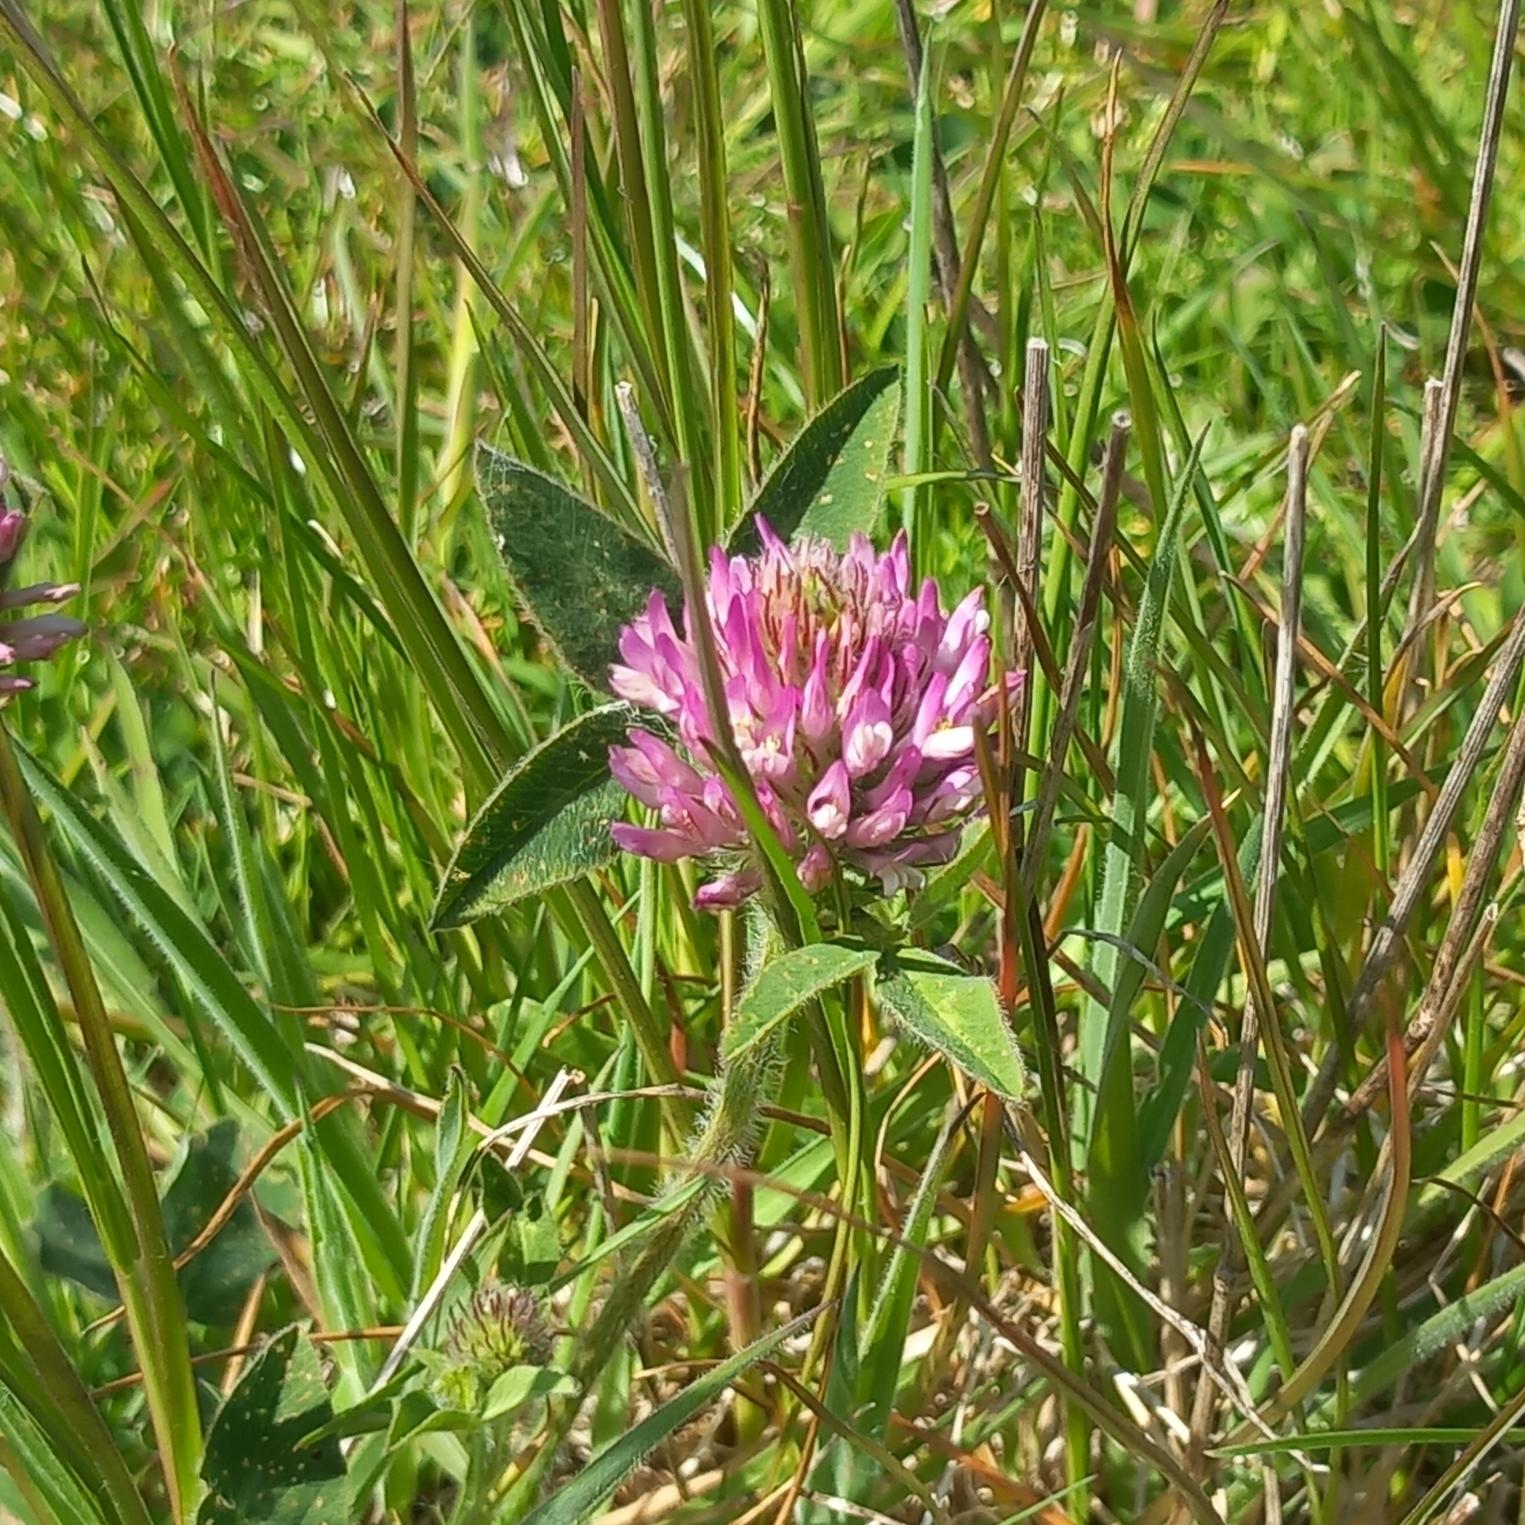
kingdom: Plantae
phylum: Tracheophyta
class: Magnoliopsida
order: Fabales
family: Fabaceae
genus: Trifolium
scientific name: Trifolium pratense
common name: Rød-kløver
